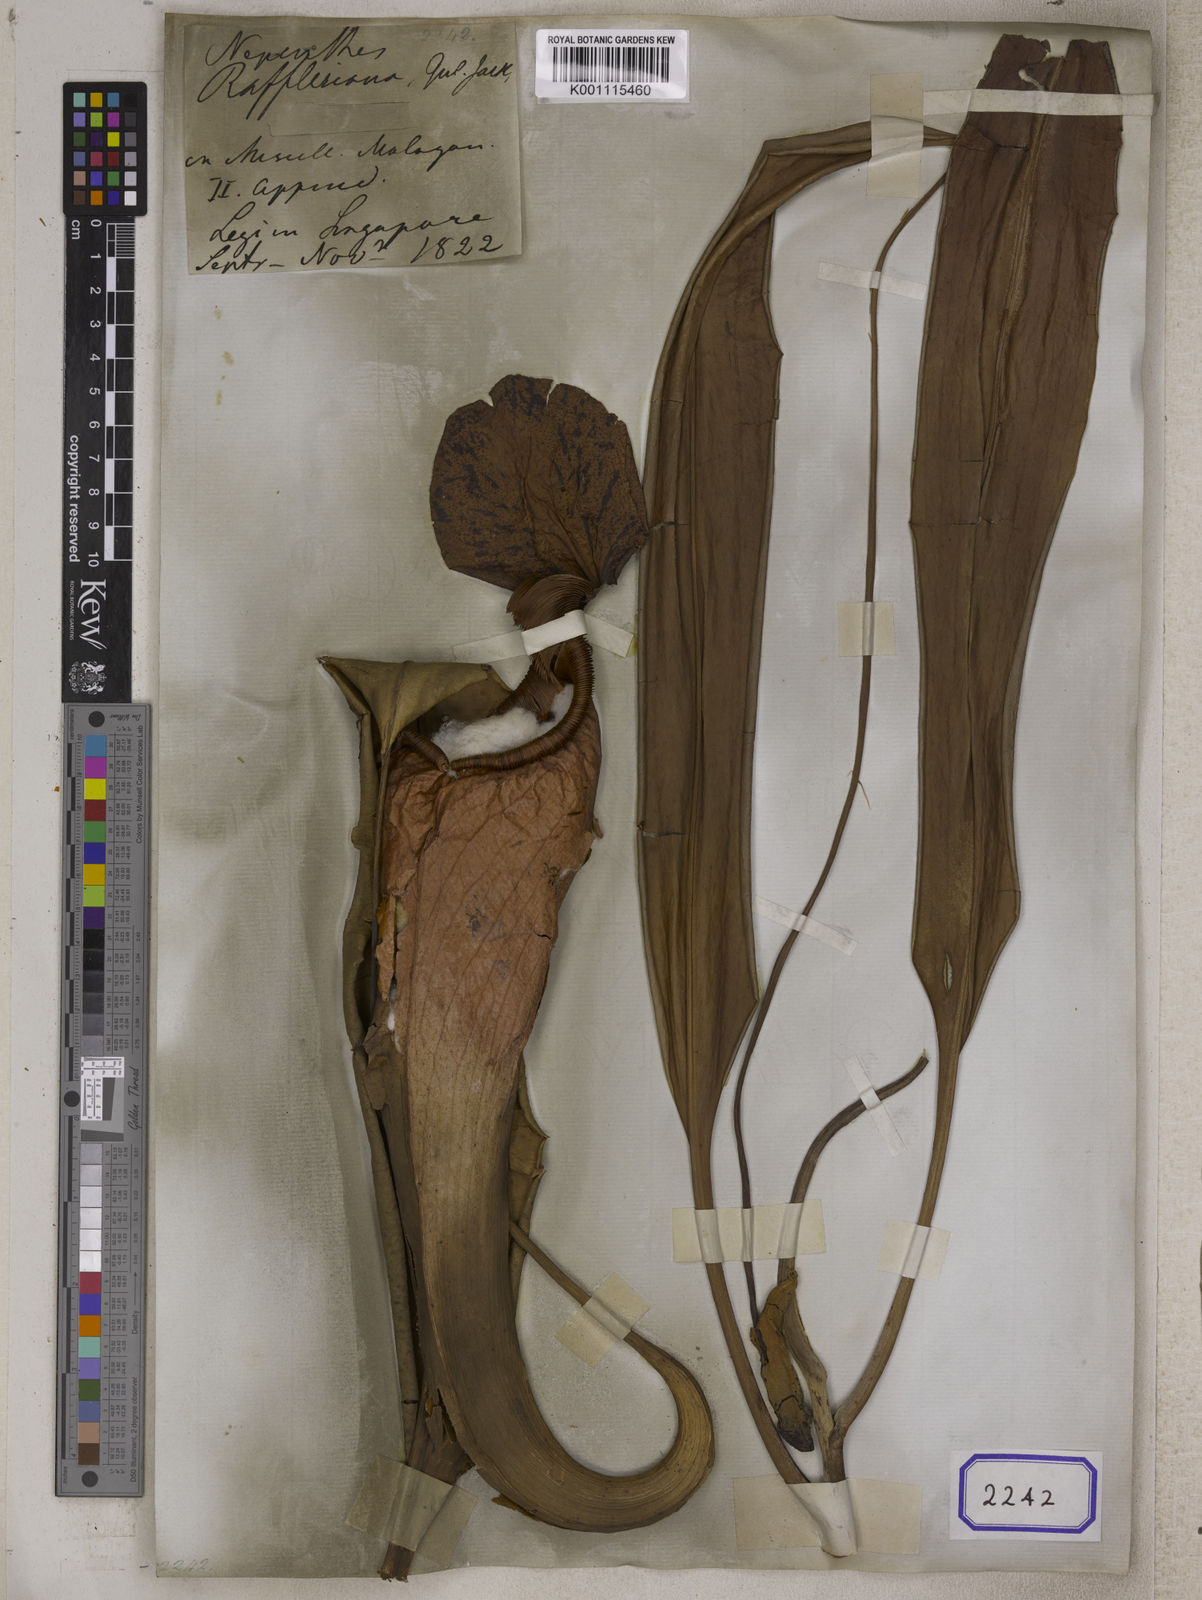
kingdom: Plantae
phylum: Tracheophyta
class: Magnoliopsida
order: Caryophyllales
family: Nepenthaceae
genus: Nepenthes
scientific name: Nepenthes rafflesiana
